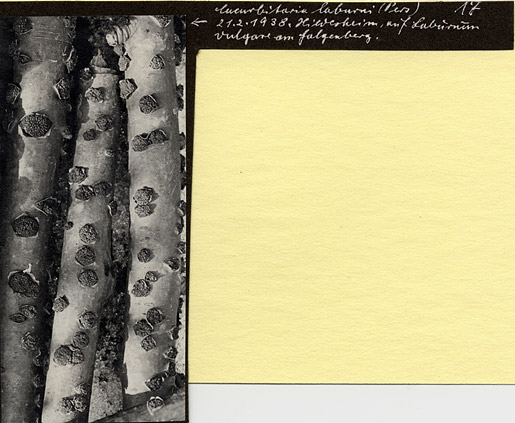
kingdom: Plantae
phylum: Tracheophyta
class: Magnoliopsida
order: Fabales
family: Fabaceae
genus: Laburnum
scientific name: Laburnum anagyroides
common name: Laburnum
